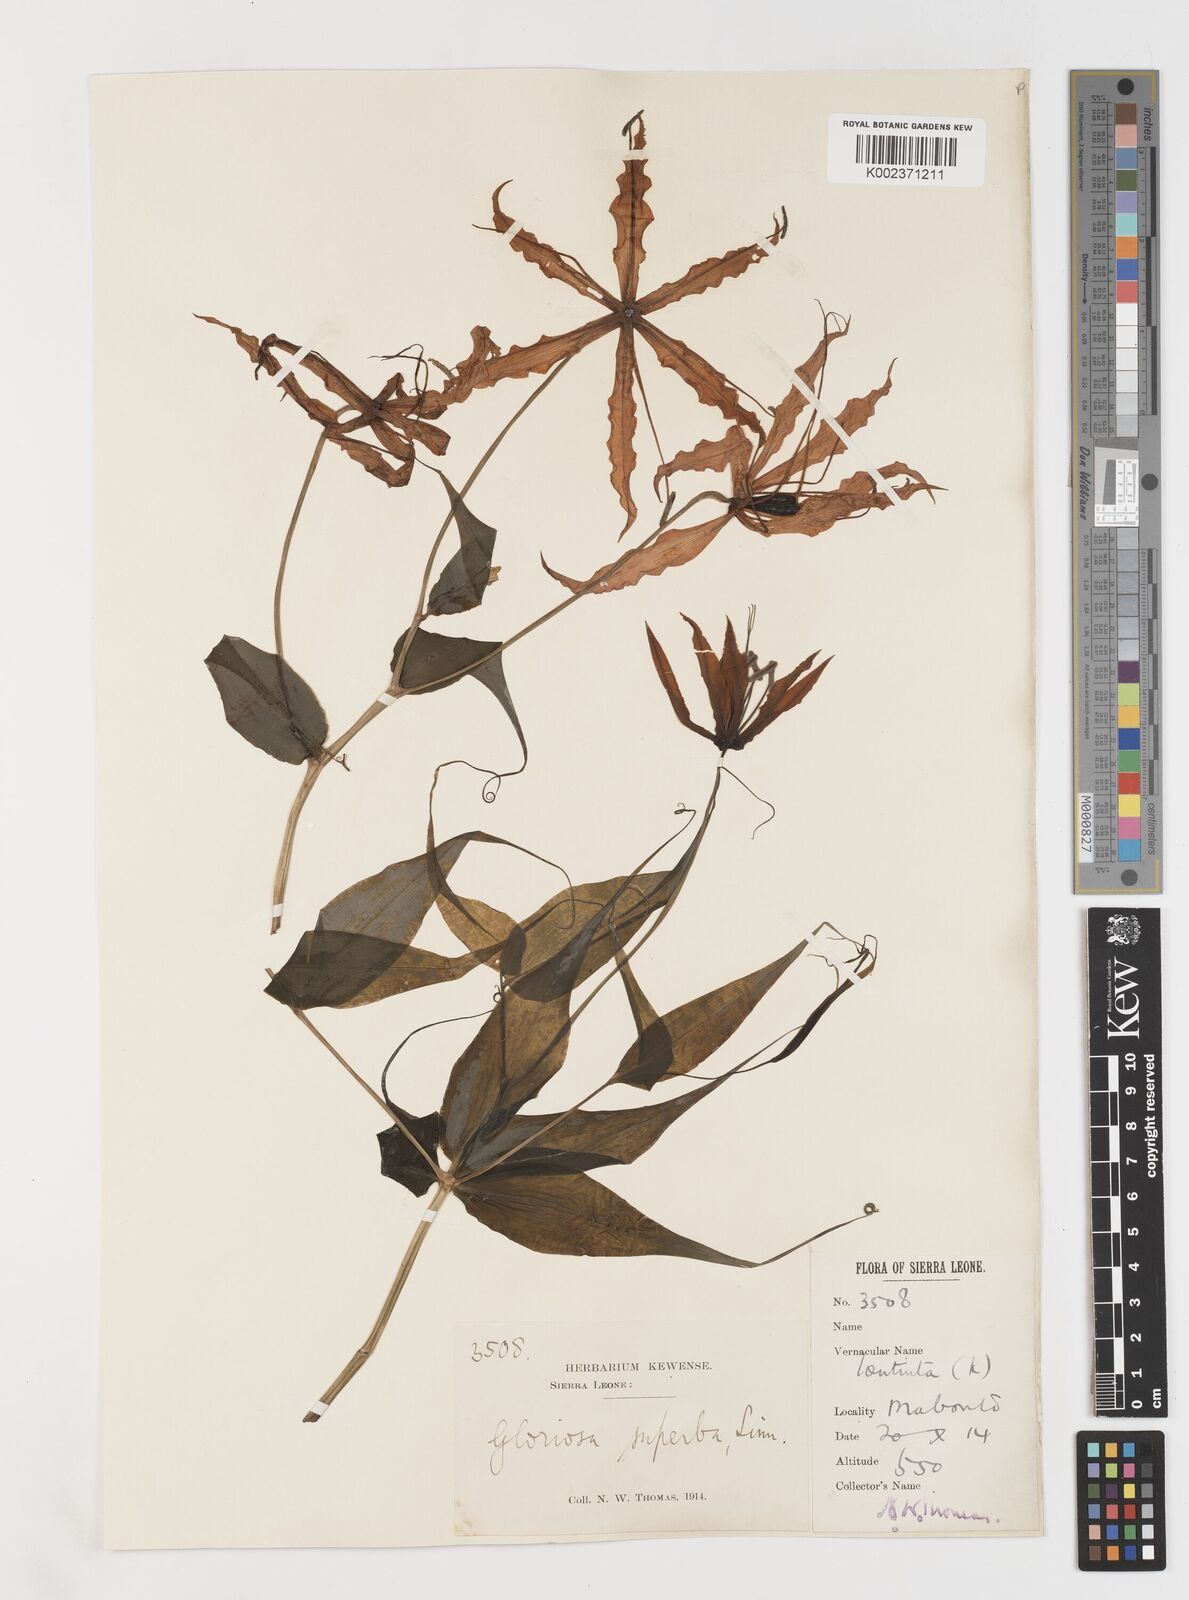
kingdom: Plantae
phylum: Tracheophyta
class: Liliopsida
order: Liliales
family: Colchicaceae
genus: Gloriosa
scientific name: Gloriosa superba
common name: Flame lily
